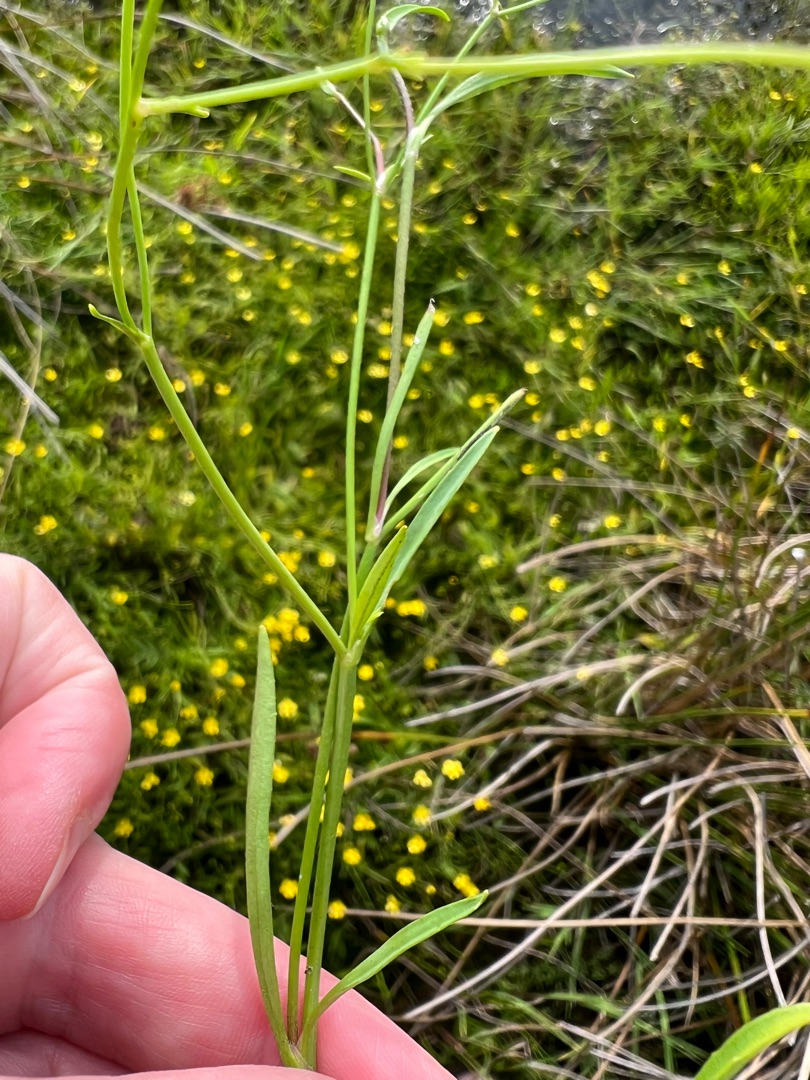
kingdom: Plantae
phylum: Tracheophyta
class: Magnoliopsida
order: Ranunculales
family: Ranunculaceae
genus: Ranunculus
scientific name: Ranunculus flammula
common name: Kær-ranunkel
